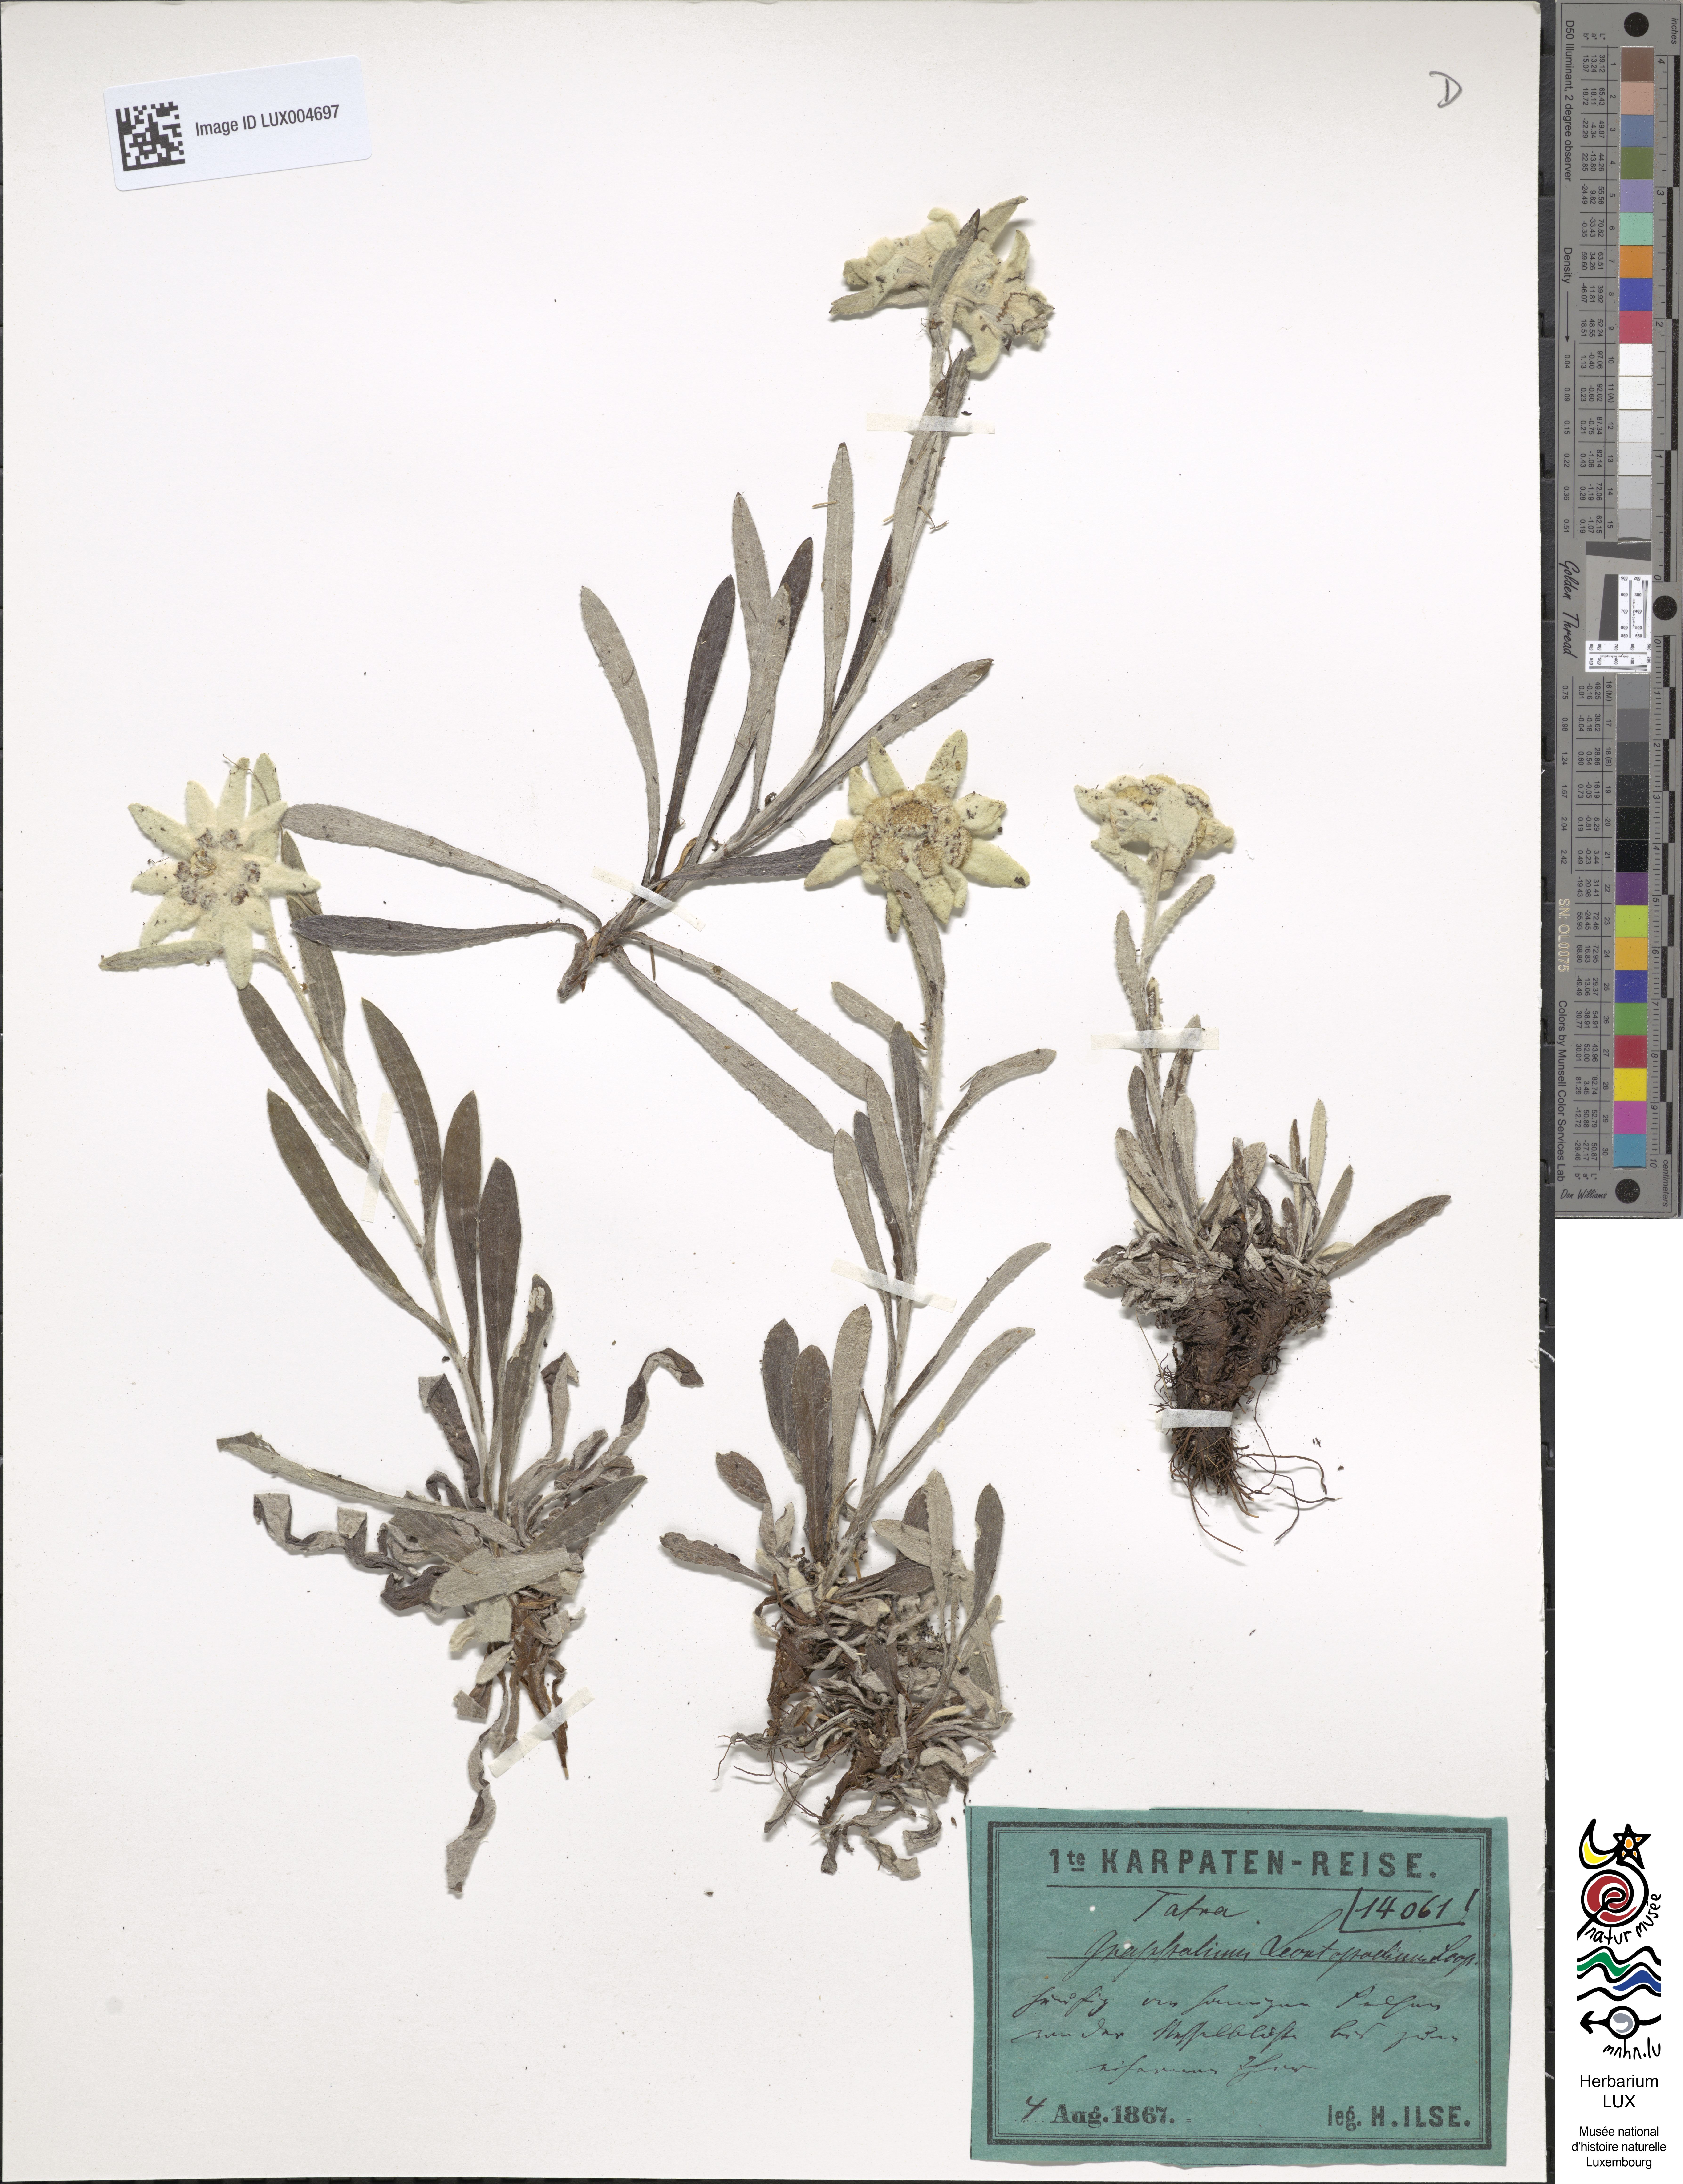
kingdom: Plantae
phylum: Tracheophyta
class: Magnoliopsida
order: Asterales
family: Asteraceae
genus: Leontopodium
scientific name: Leontopodium nivale
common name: Edelweiss
